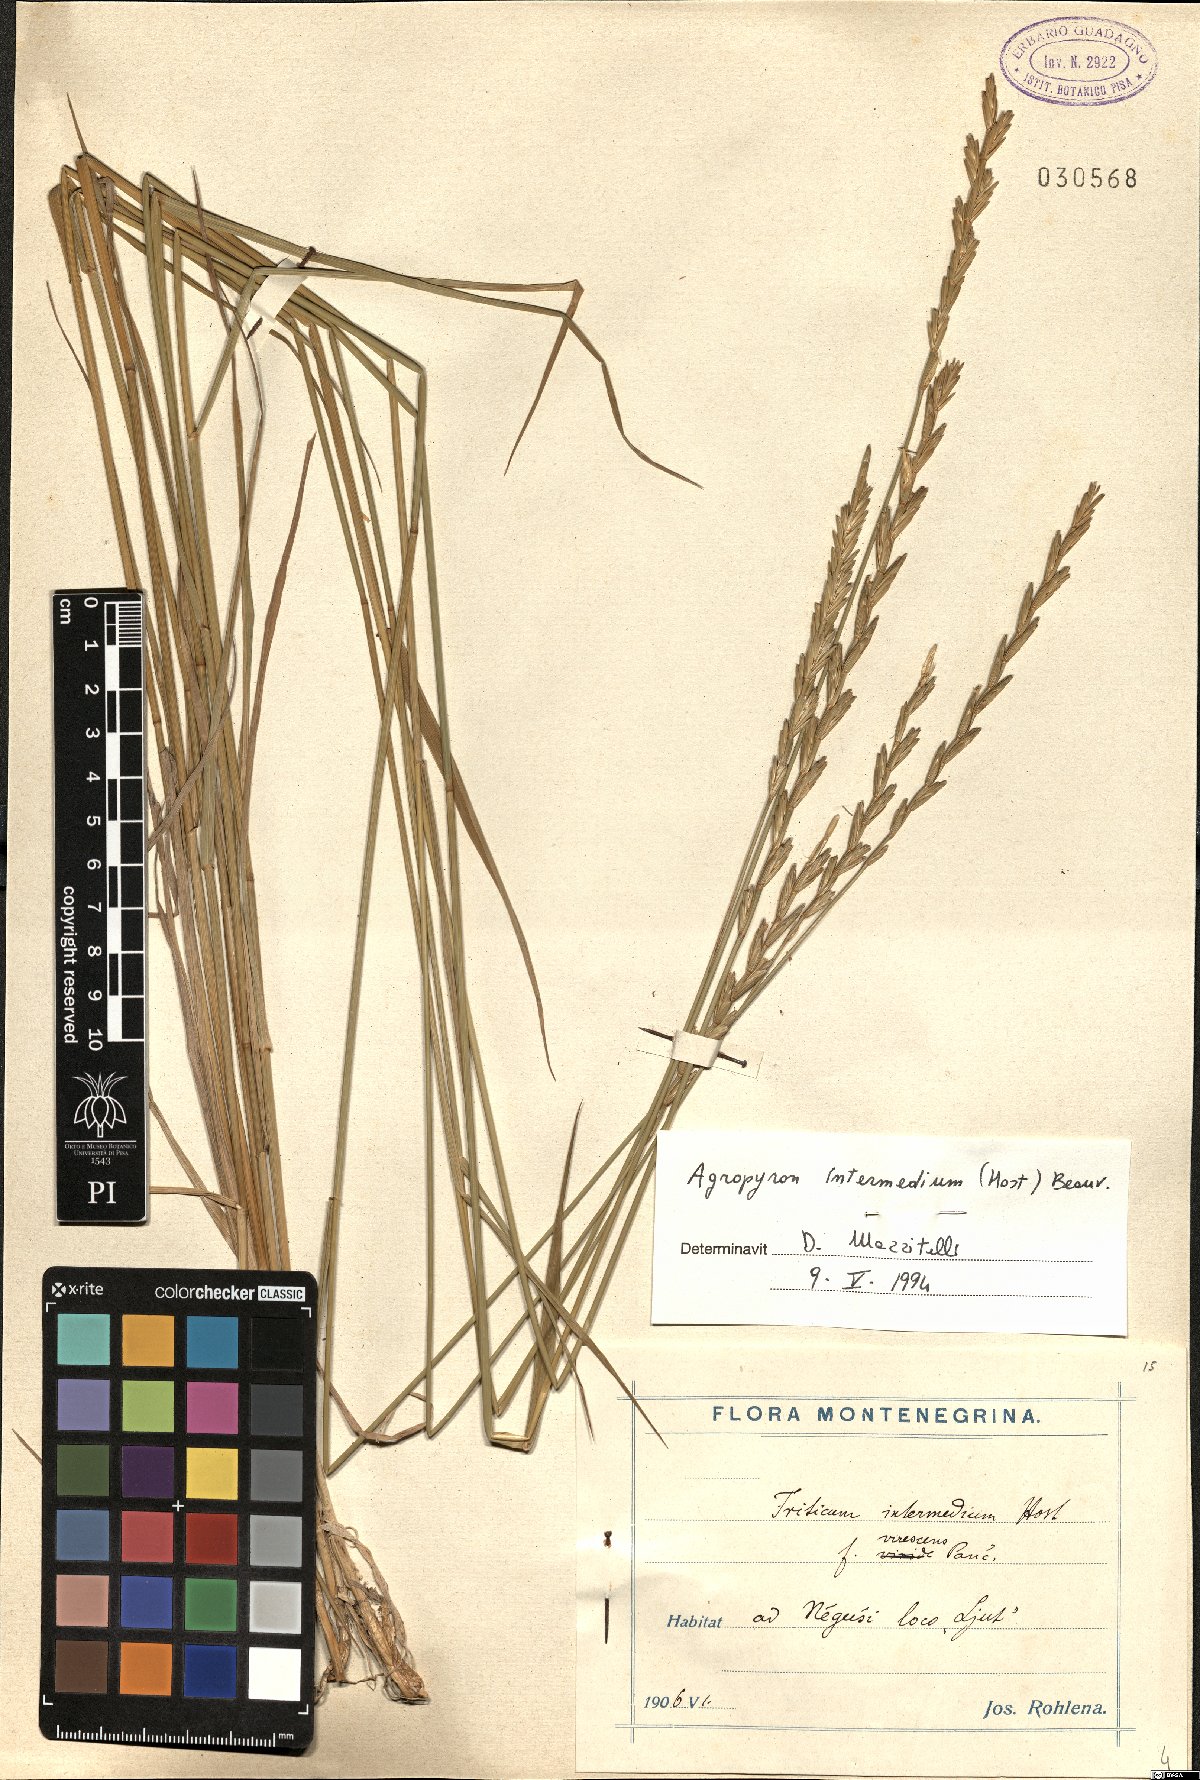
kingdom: Plantae
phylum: Tracheophyta
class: Liliopsida
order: Poales
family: Poaceae
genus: Thinopyrum
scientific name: Thinopyrum intermedium
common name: Intermediate wheatgrass
